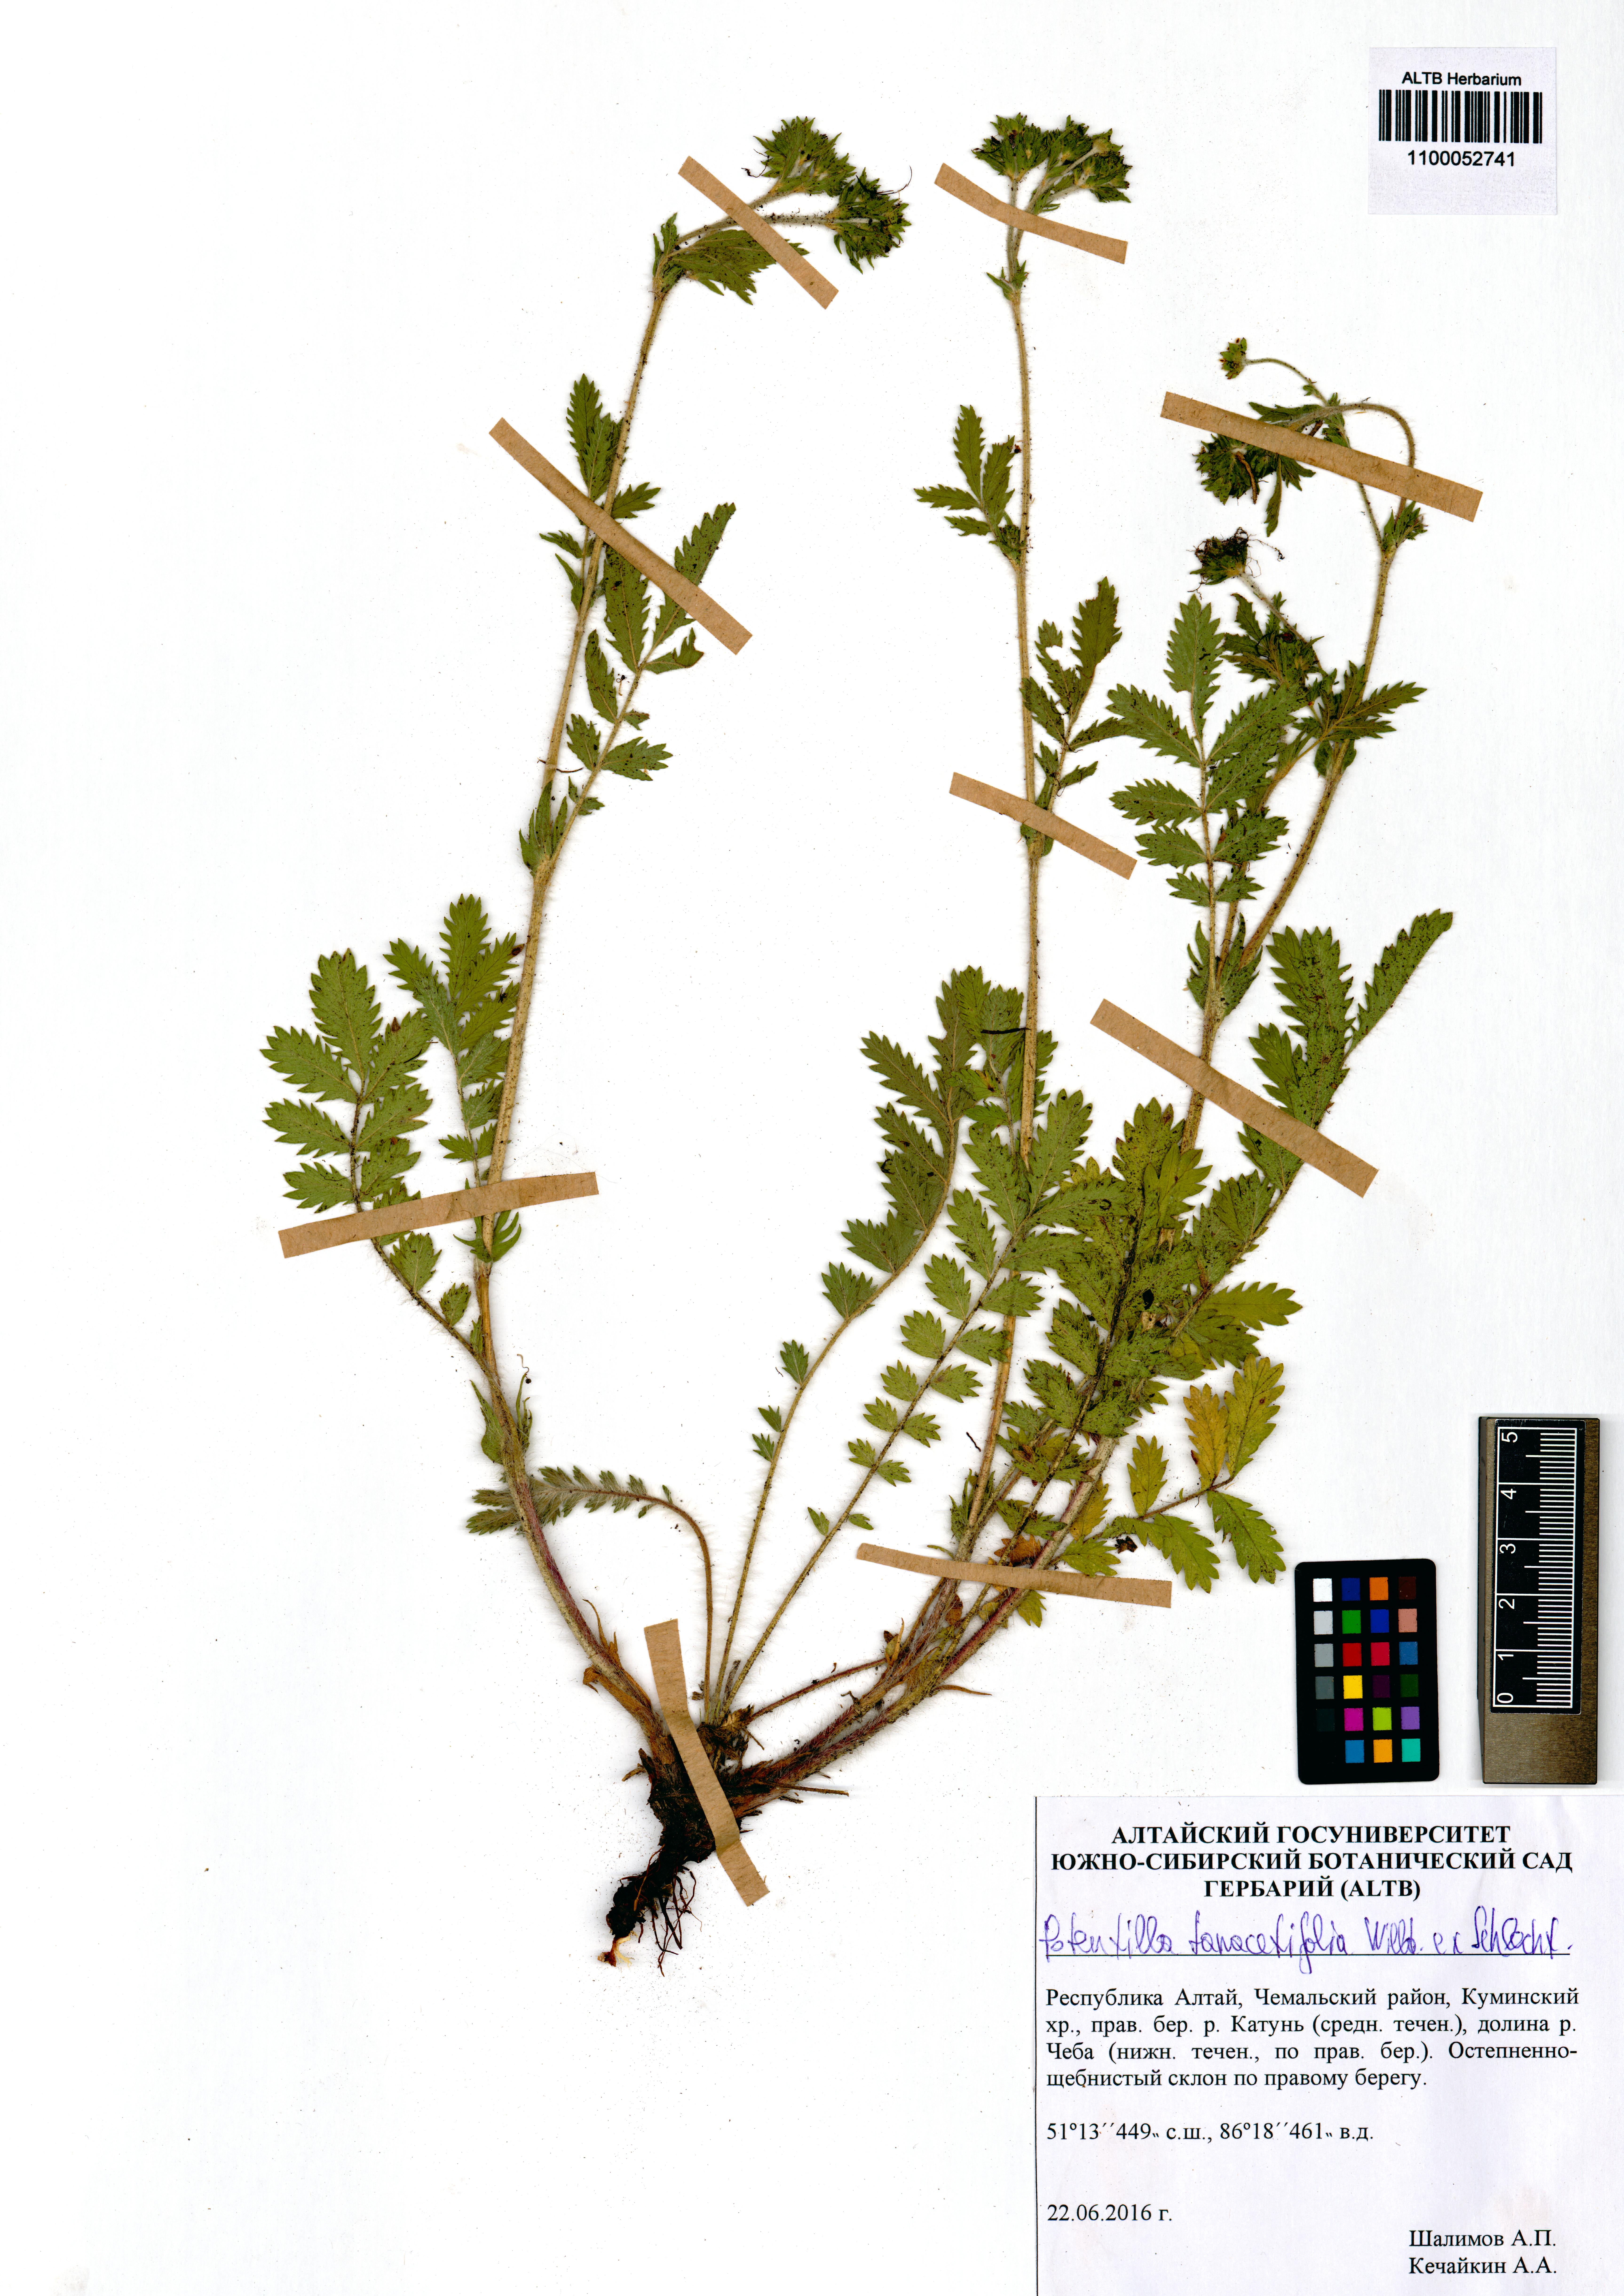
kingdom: Plantae
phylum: Tracheophyta
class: Magnoliopsida
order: Rosales
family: Rosaceae
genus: Potentilla
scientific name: Potentilla tanacetifolia
